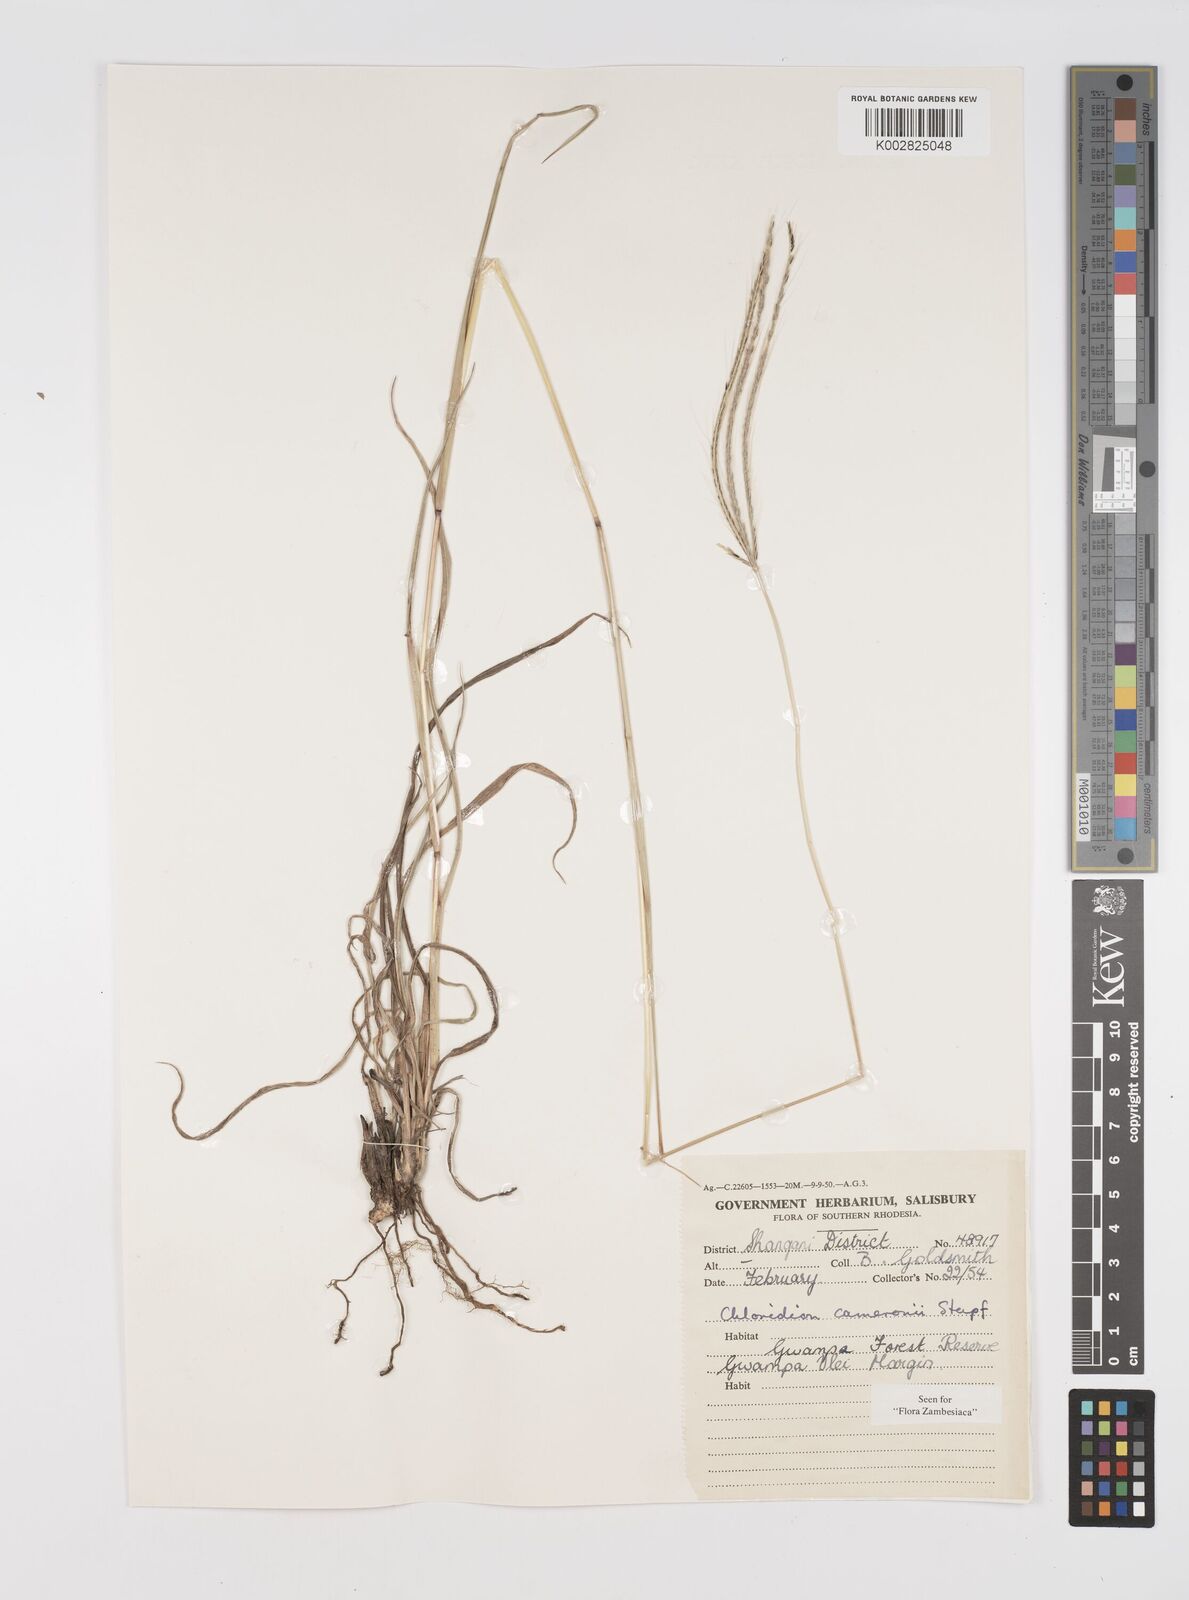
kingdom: Plantae
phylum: Tracheophyta
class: Liliopsida
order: Poales
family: Poaceae
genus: Stereochlaena
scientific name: Stereochlaena cameronii
